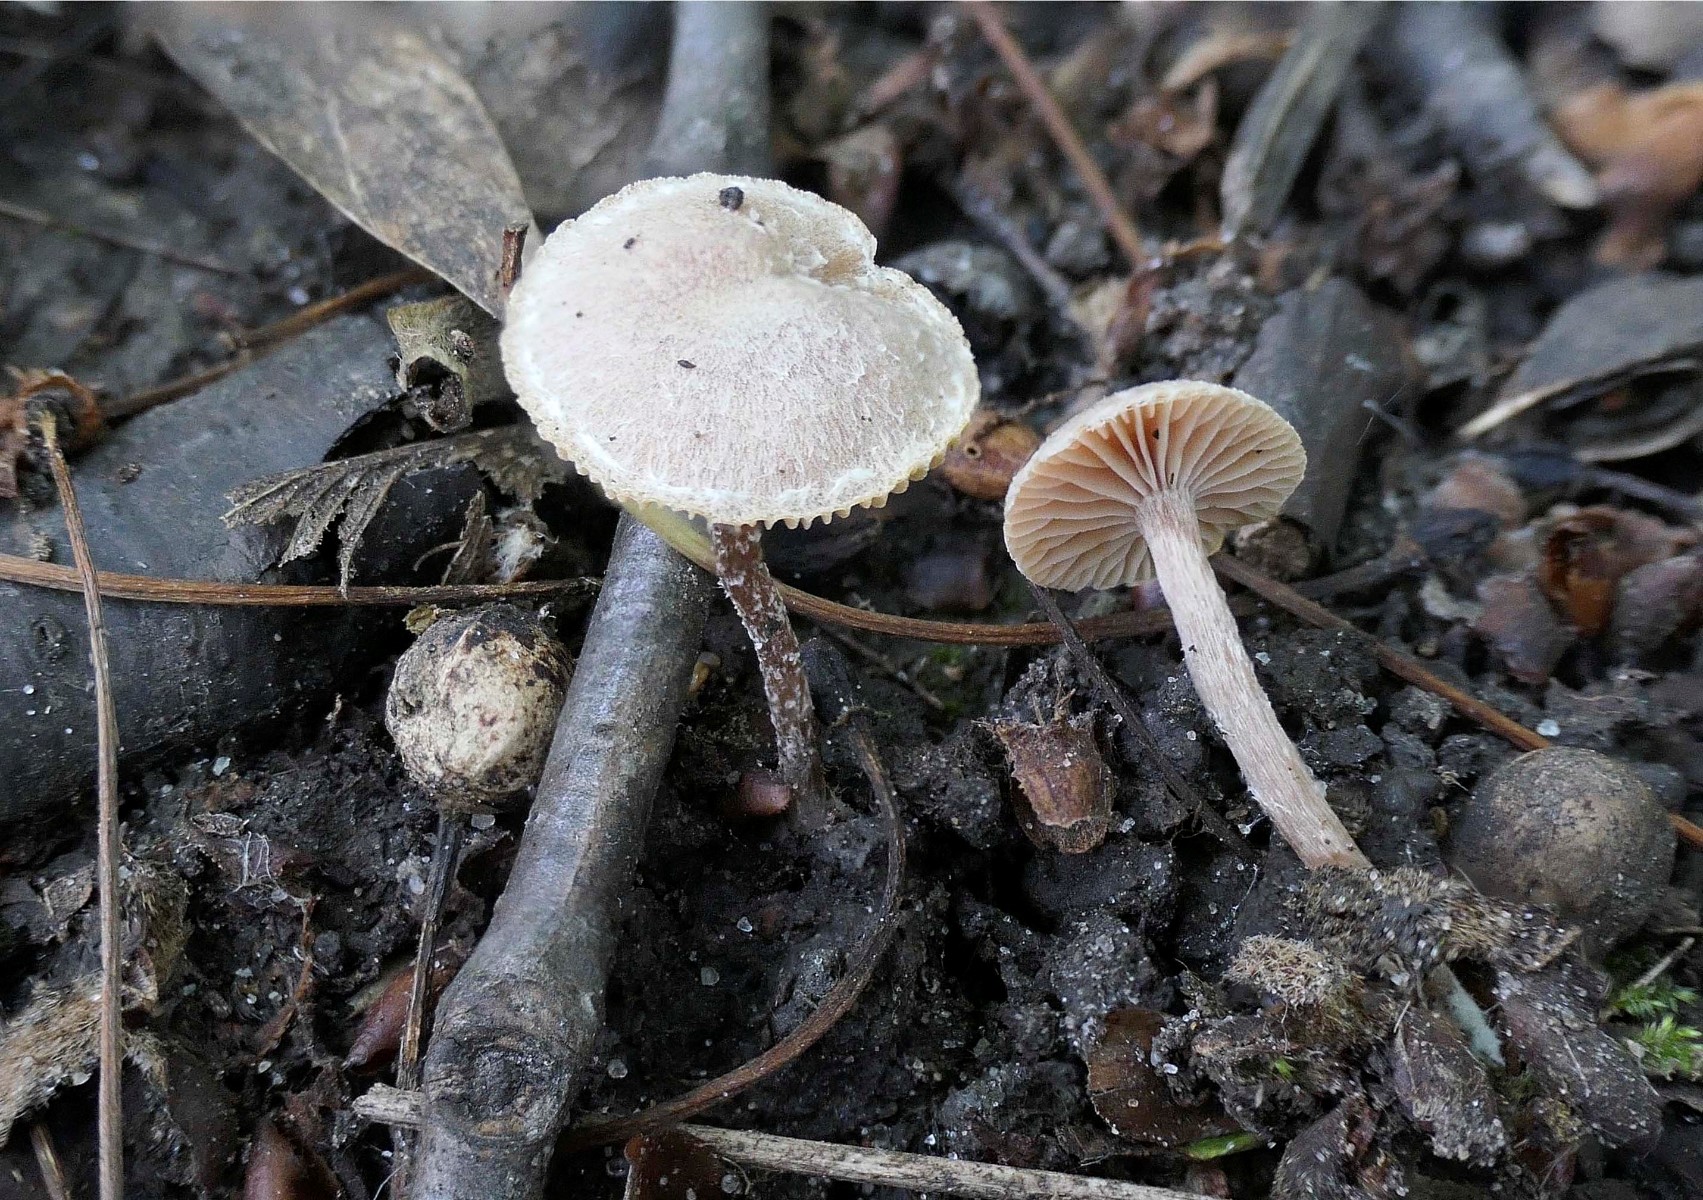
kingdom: Fungi
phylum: Basidiomycota
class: Agaricomycetes
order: Agaricales
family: Tubariaceae
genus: Tubaria
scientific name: Tubaria conspersa
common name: bleg fnughat
